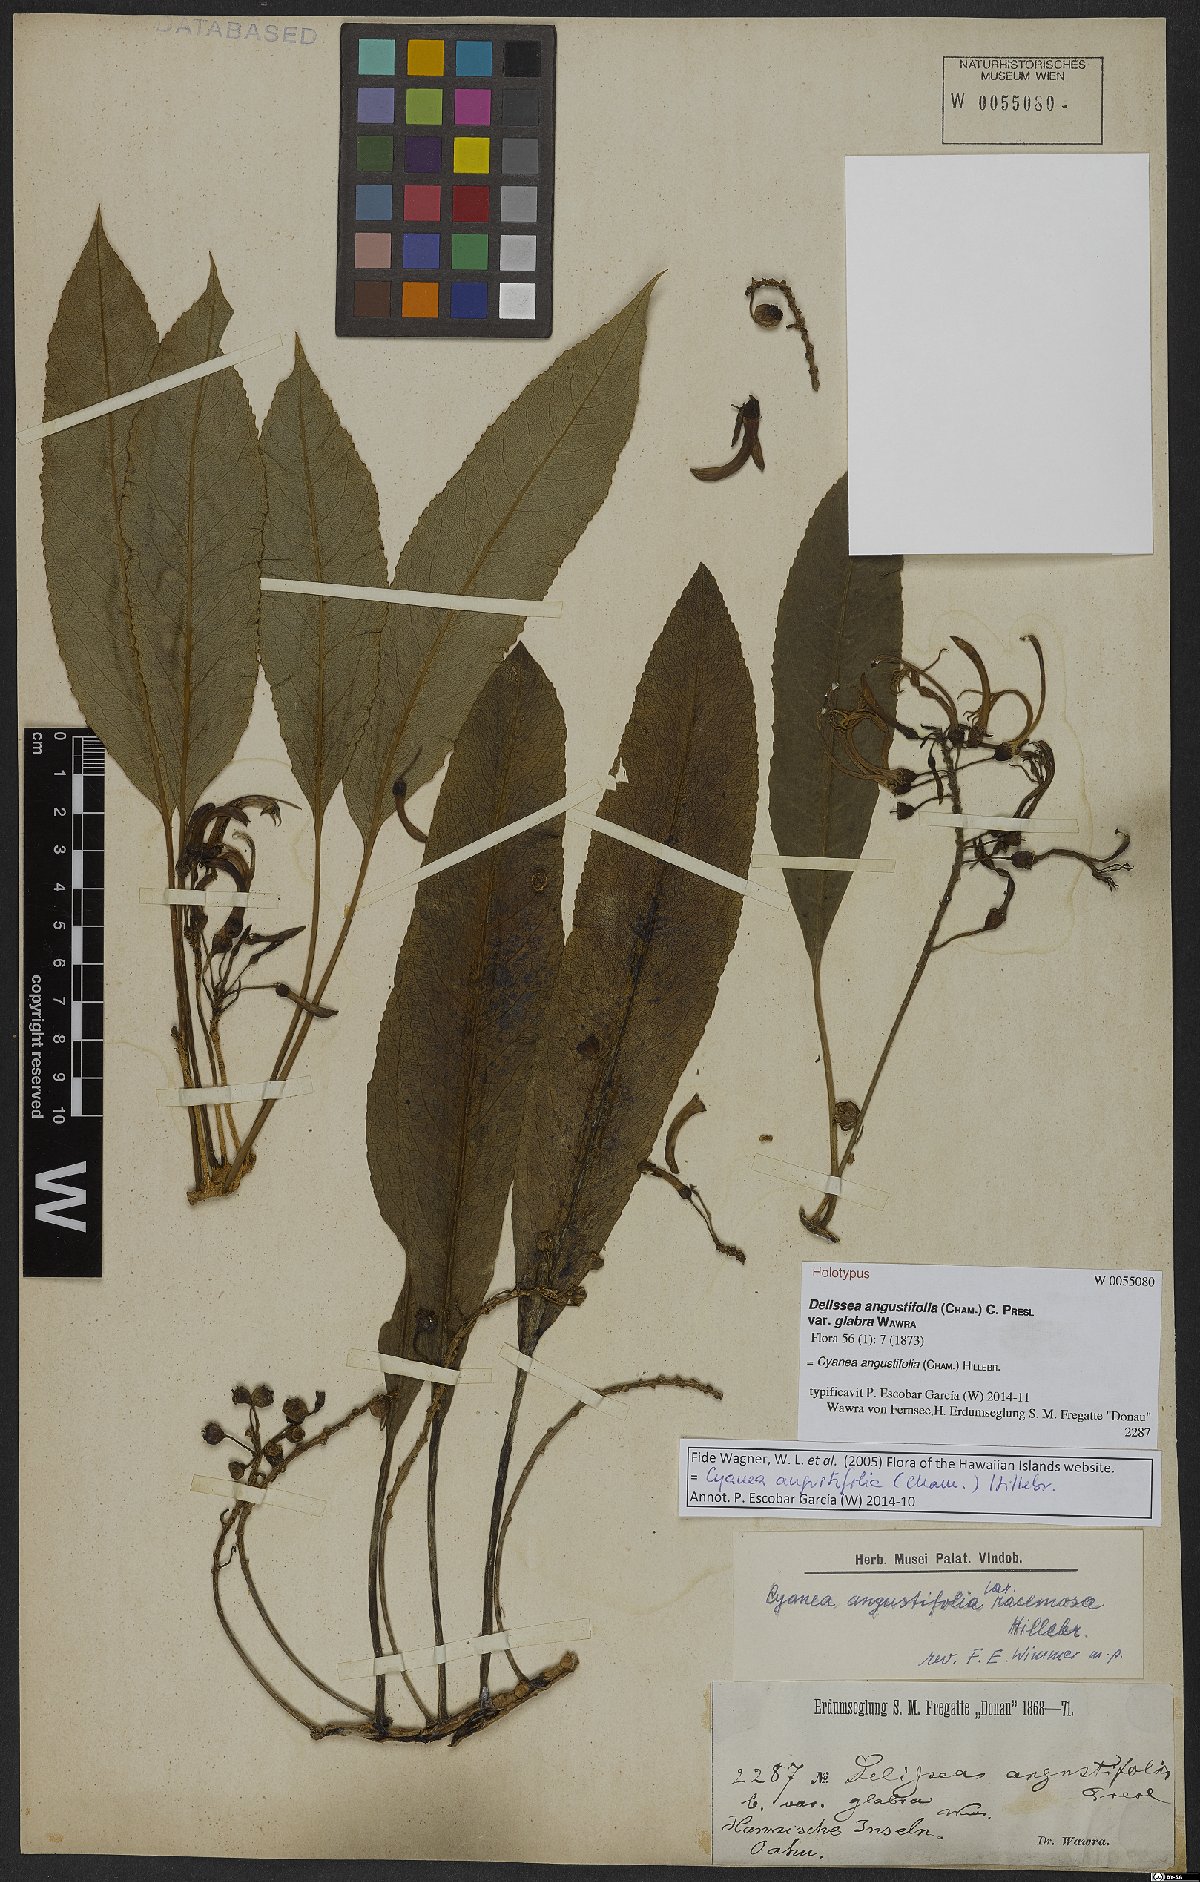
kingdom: Plantae
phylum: Tracheophyta
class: Magnoliopsida
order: Asterales
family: Campanulaceae
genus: Cyanea
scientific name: Cyanea angustifolia
